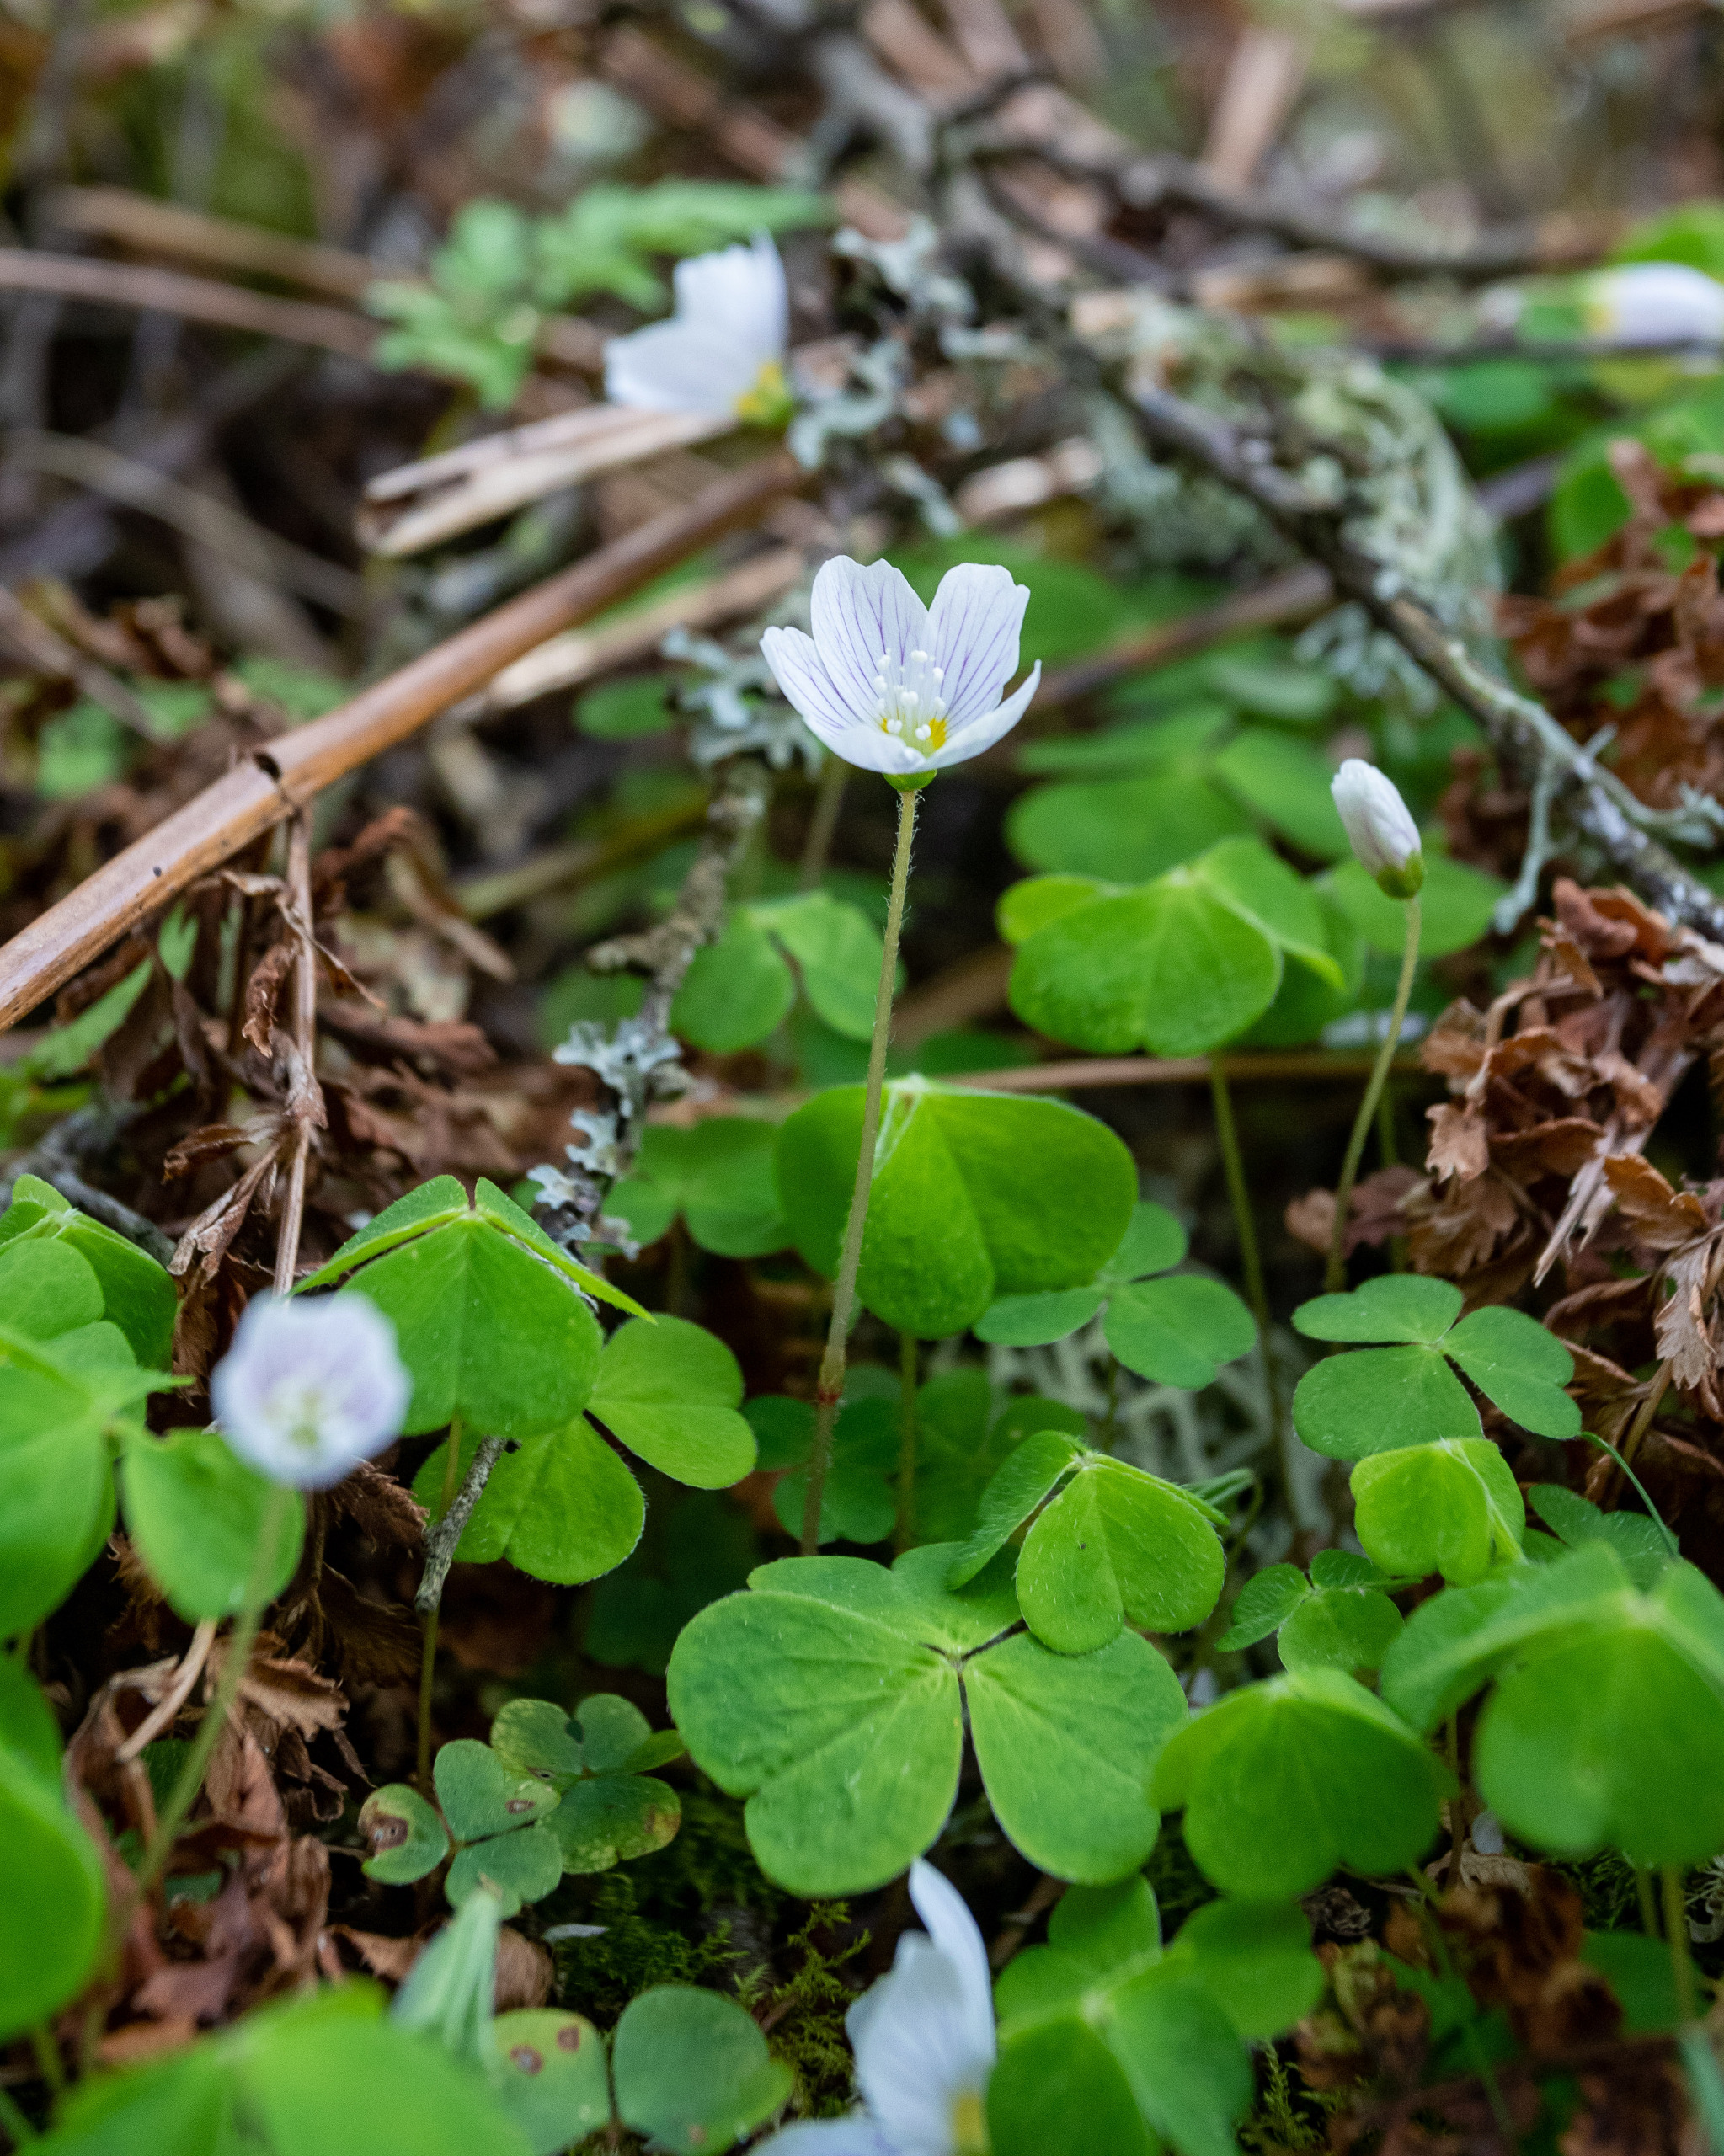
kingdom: Plantae
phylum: Tracheophyta
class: Magnoliopsida
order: Oxalidales
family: Oxalidaceae
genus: Oxalis
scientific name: Oxalis acetosella
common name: Skovsyre
